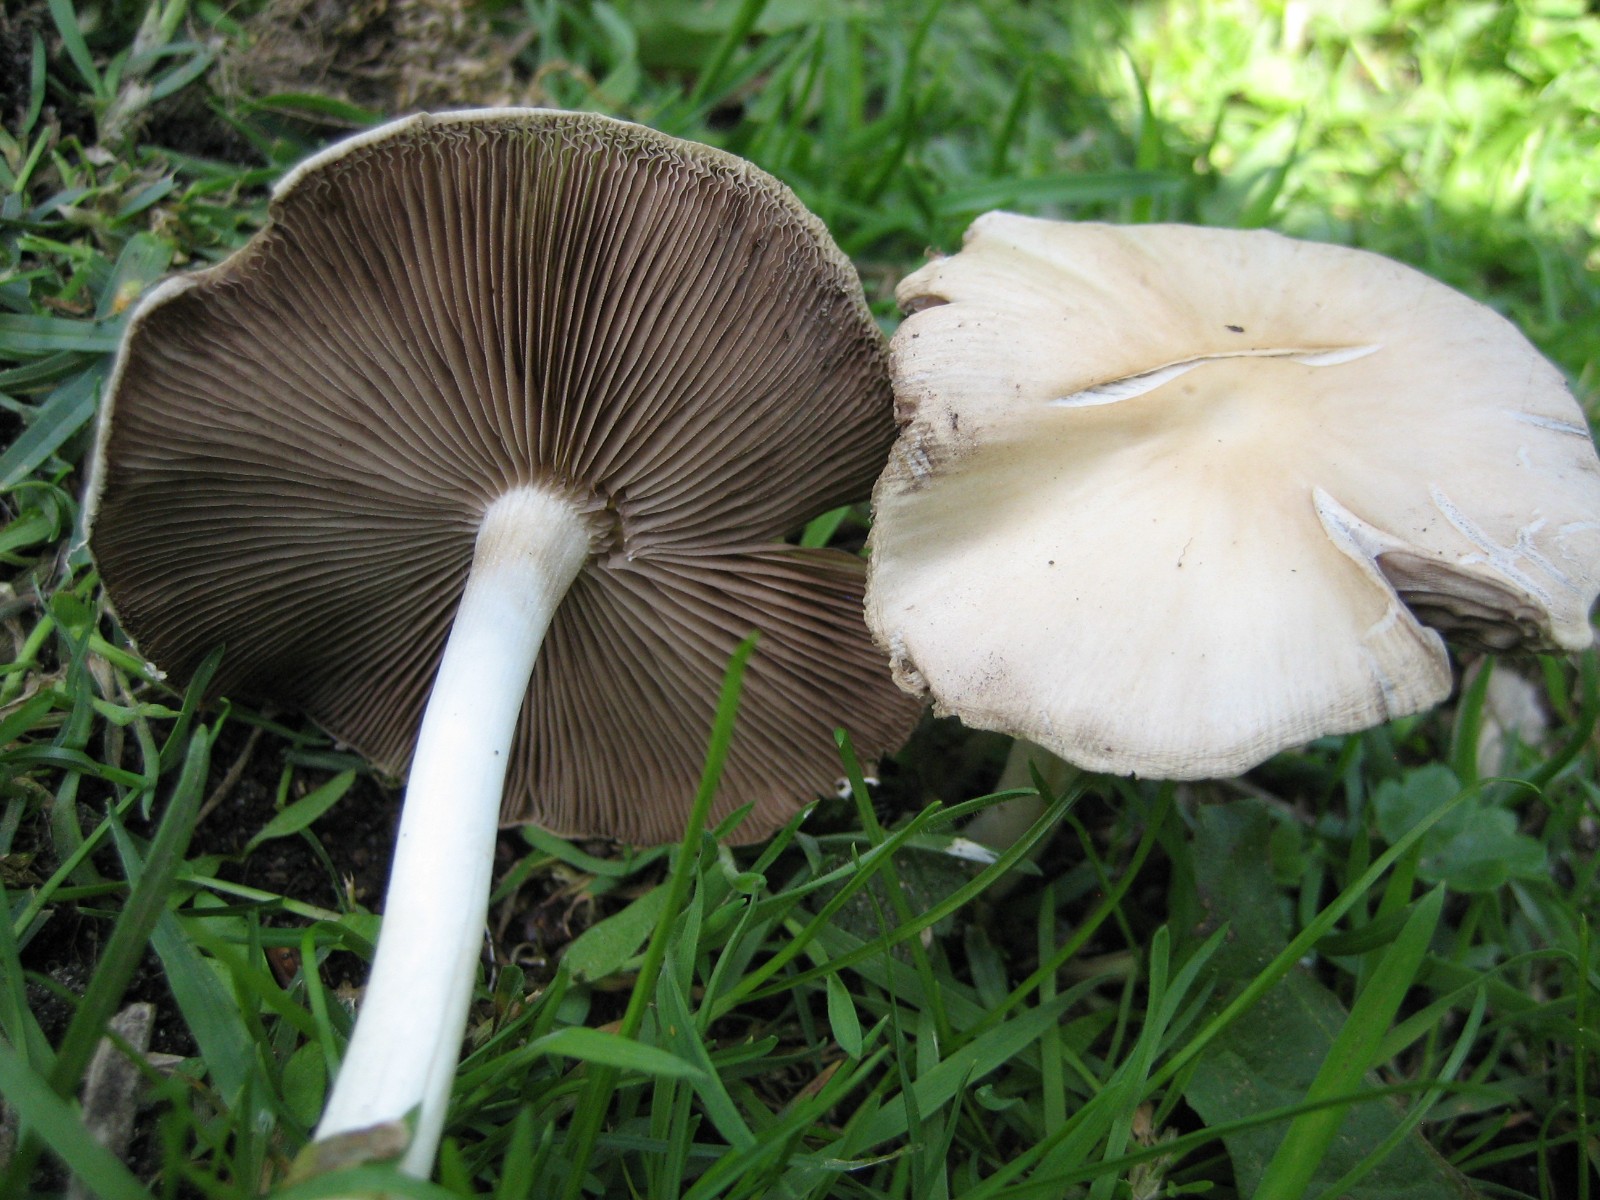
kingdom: Fungi
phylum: Basidiomycota
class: Agaricomycetes
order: Agaricales
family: Psathyrellaceae
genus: Candolleomyces
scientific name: Candolleomyces candolleanus
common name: Candolles mørkhat
